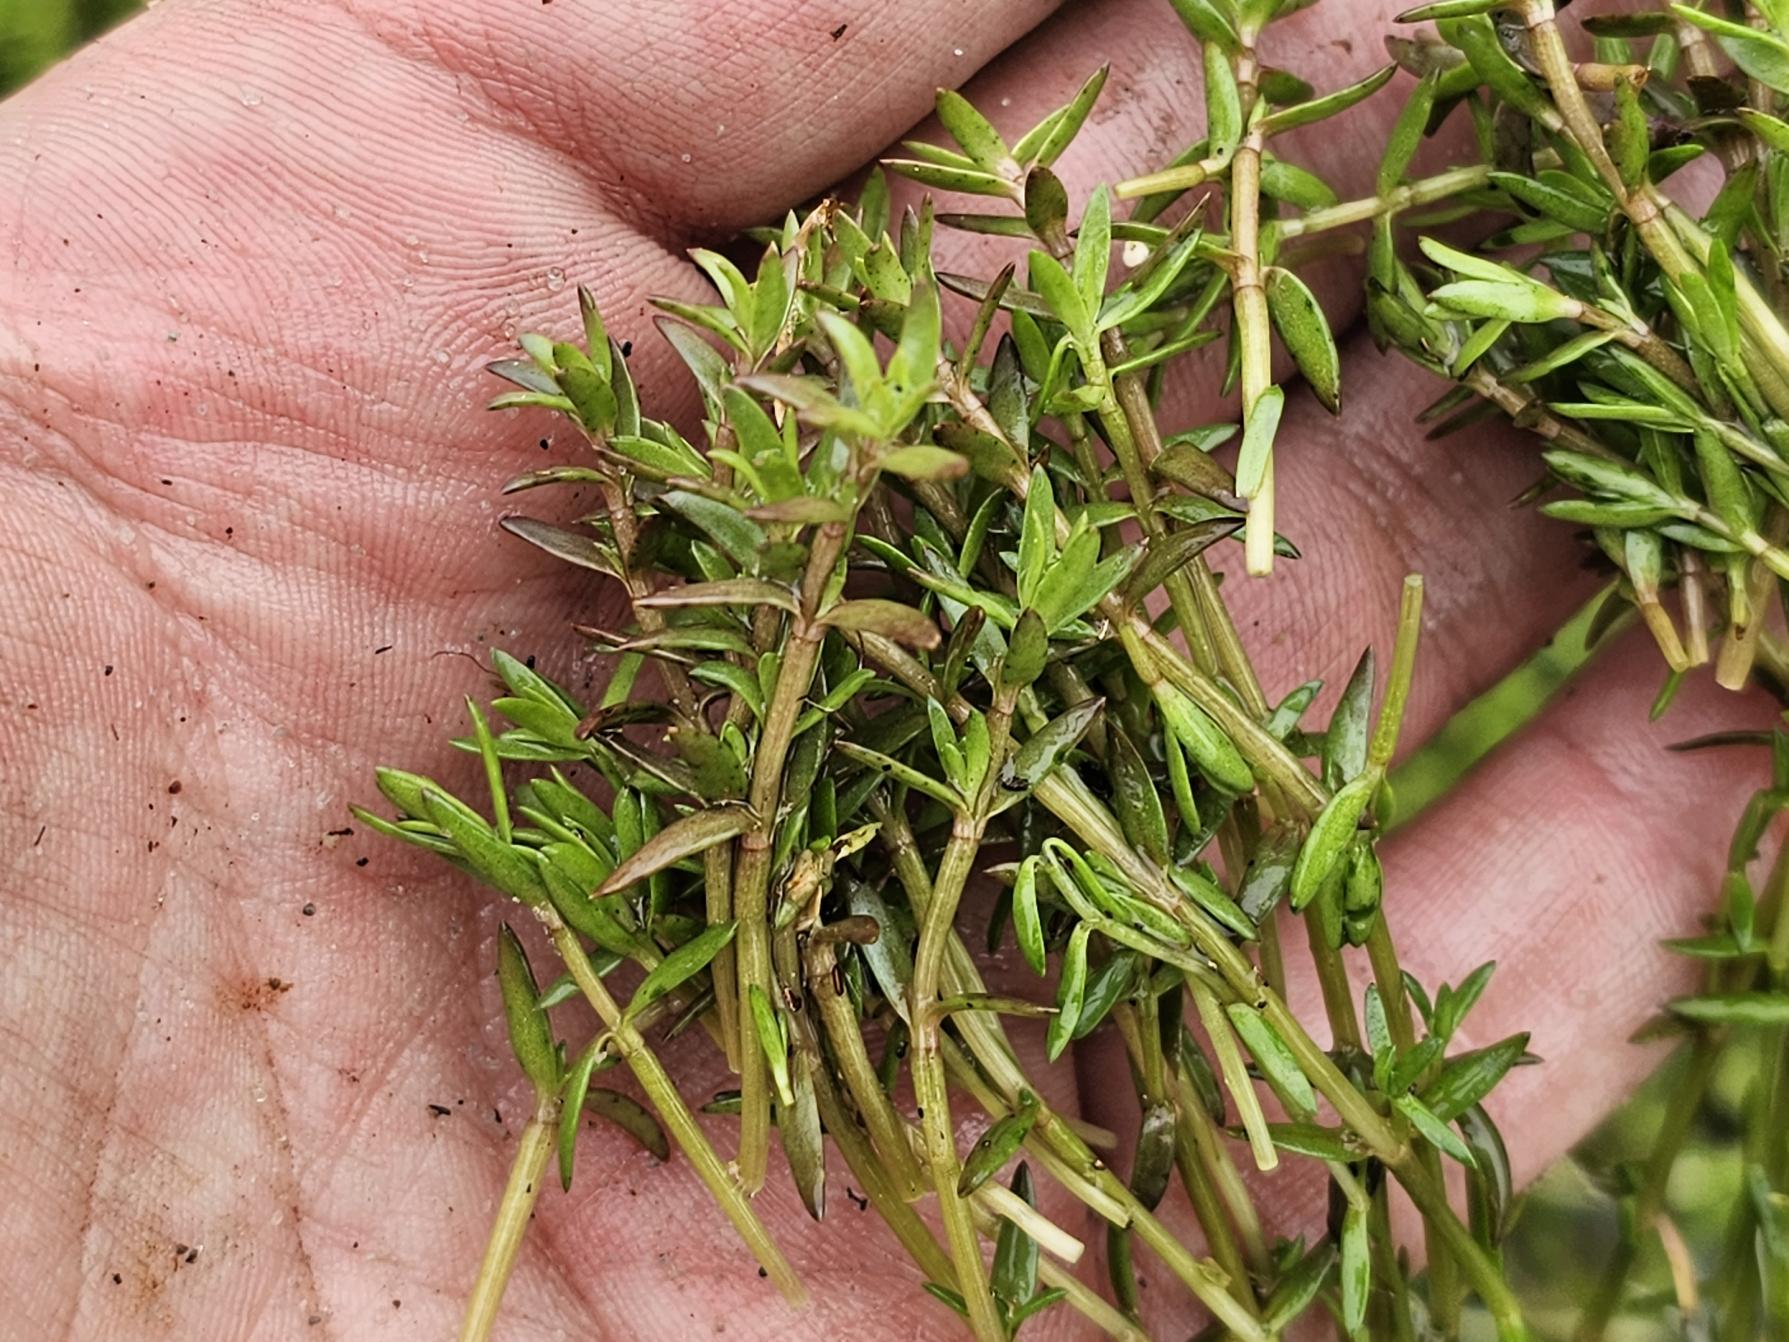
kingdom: Plantae
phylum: Tracheophyta
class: Magnoliopsida
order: Saxifragales
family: Crassulaceae
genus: Crassula
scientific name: Crassula helmsii
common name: New zealandsk korsarve
